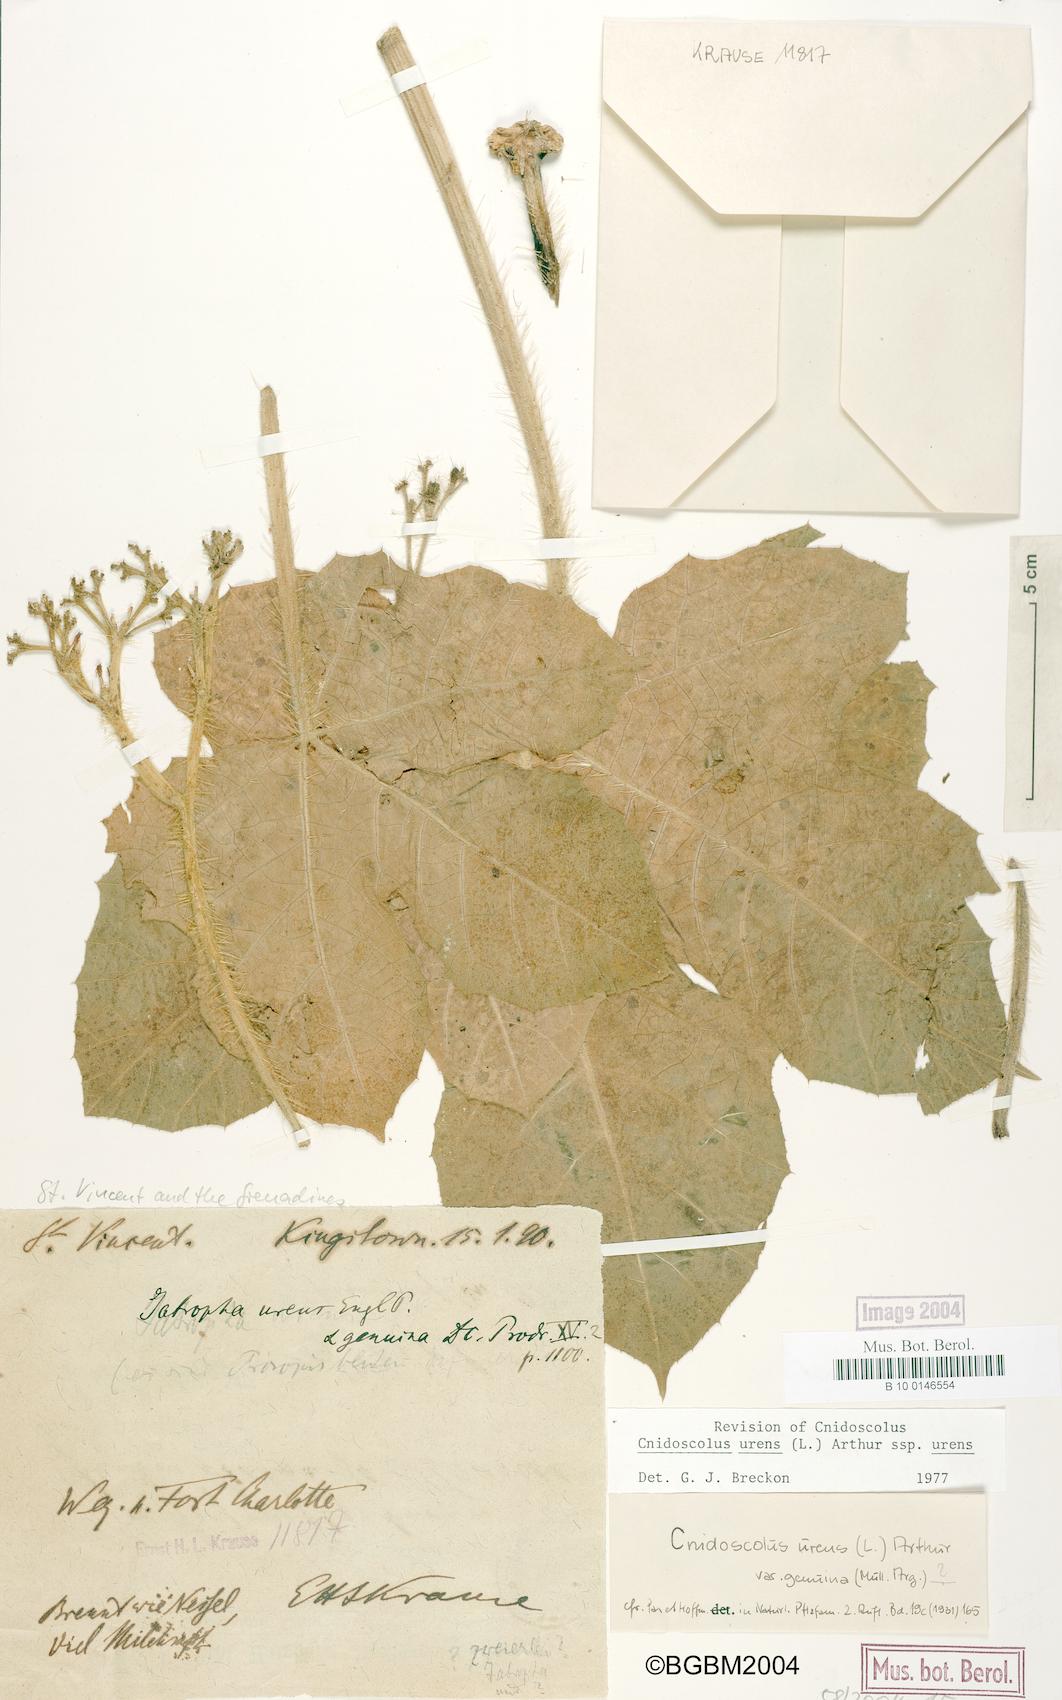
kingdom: Plantae
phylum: Tracheophyta
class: Magnoliopsida
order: Malpighiales
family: Euphorbiaceae
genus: Cnidoscolus
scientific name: Cnidoscolus urens
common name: Bull-nettle
